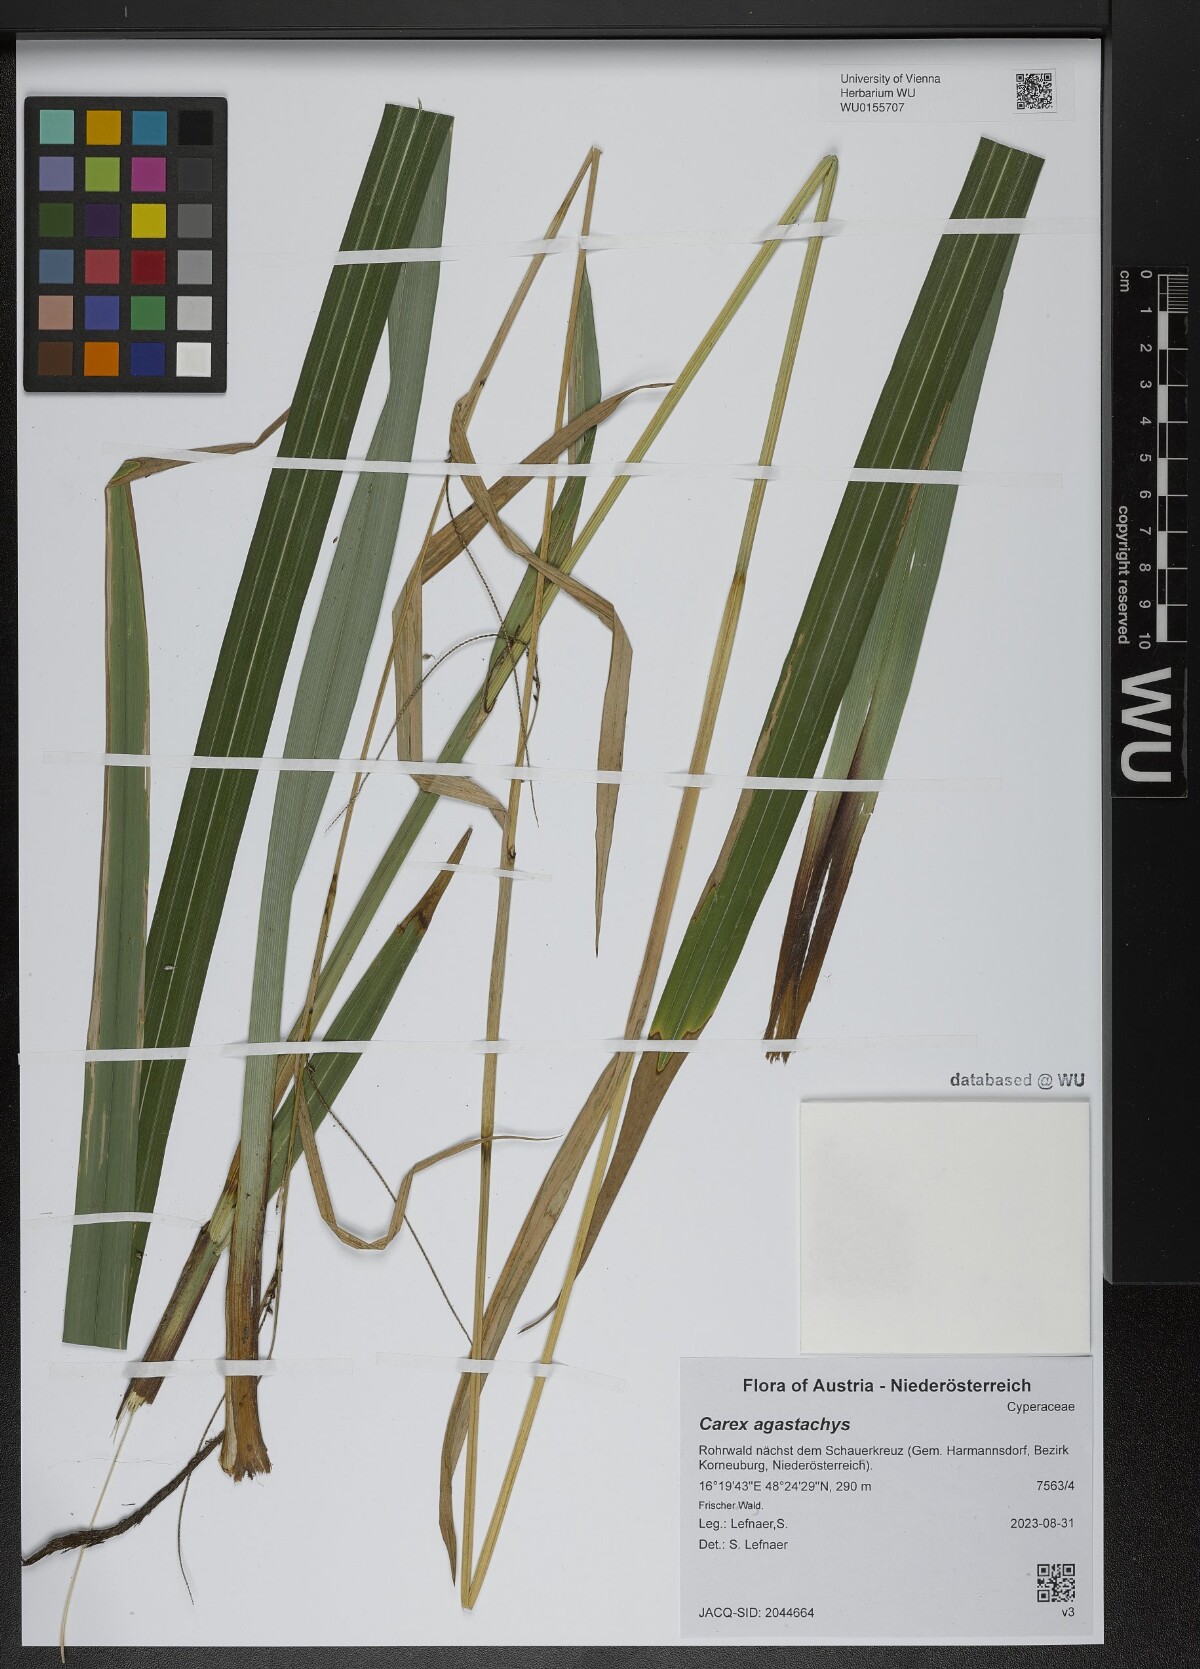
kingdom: Plantae
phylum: Tracheophyta
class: Liliopsida
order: Poales
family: Cyperaceae
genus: Carex
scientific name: Carex agastachys
